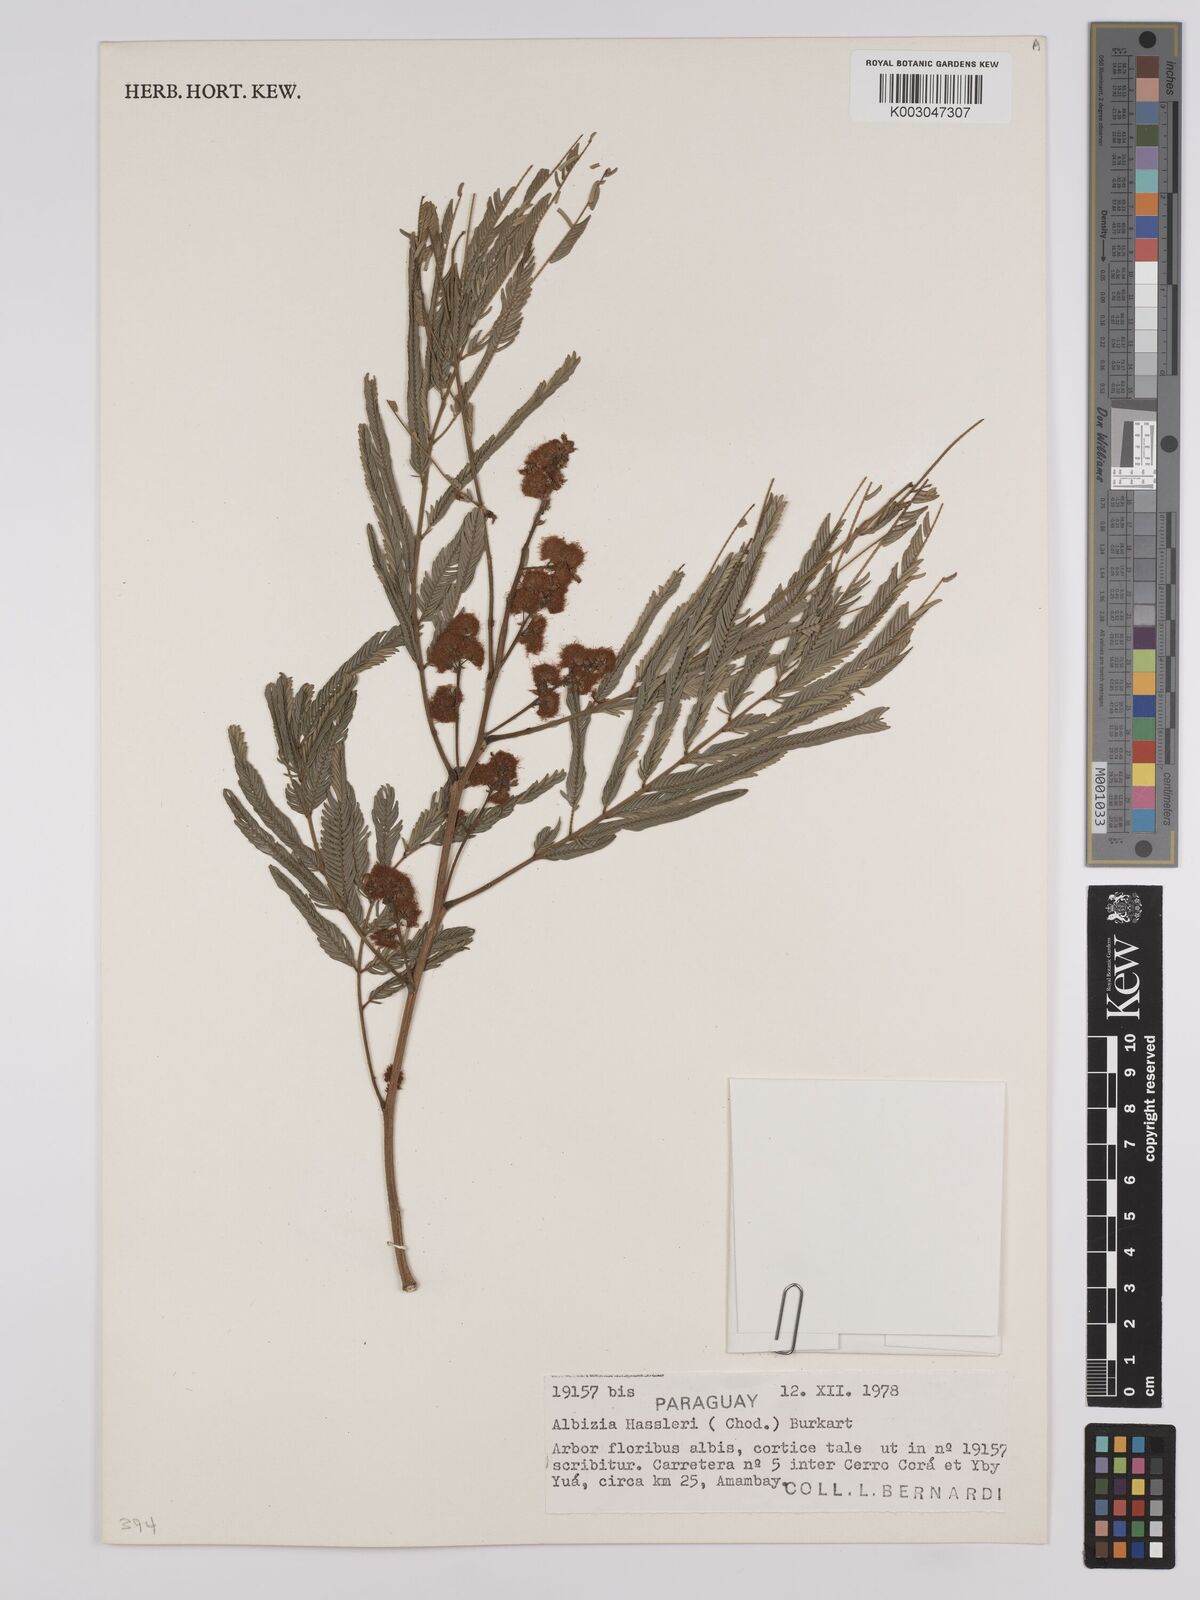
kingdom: Plantae
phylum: Tracheophyta
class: Magnoliopsida
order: Fabales
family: Fabaceae
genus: Albizia
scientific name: Albizia niopoides
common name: Silk tree
